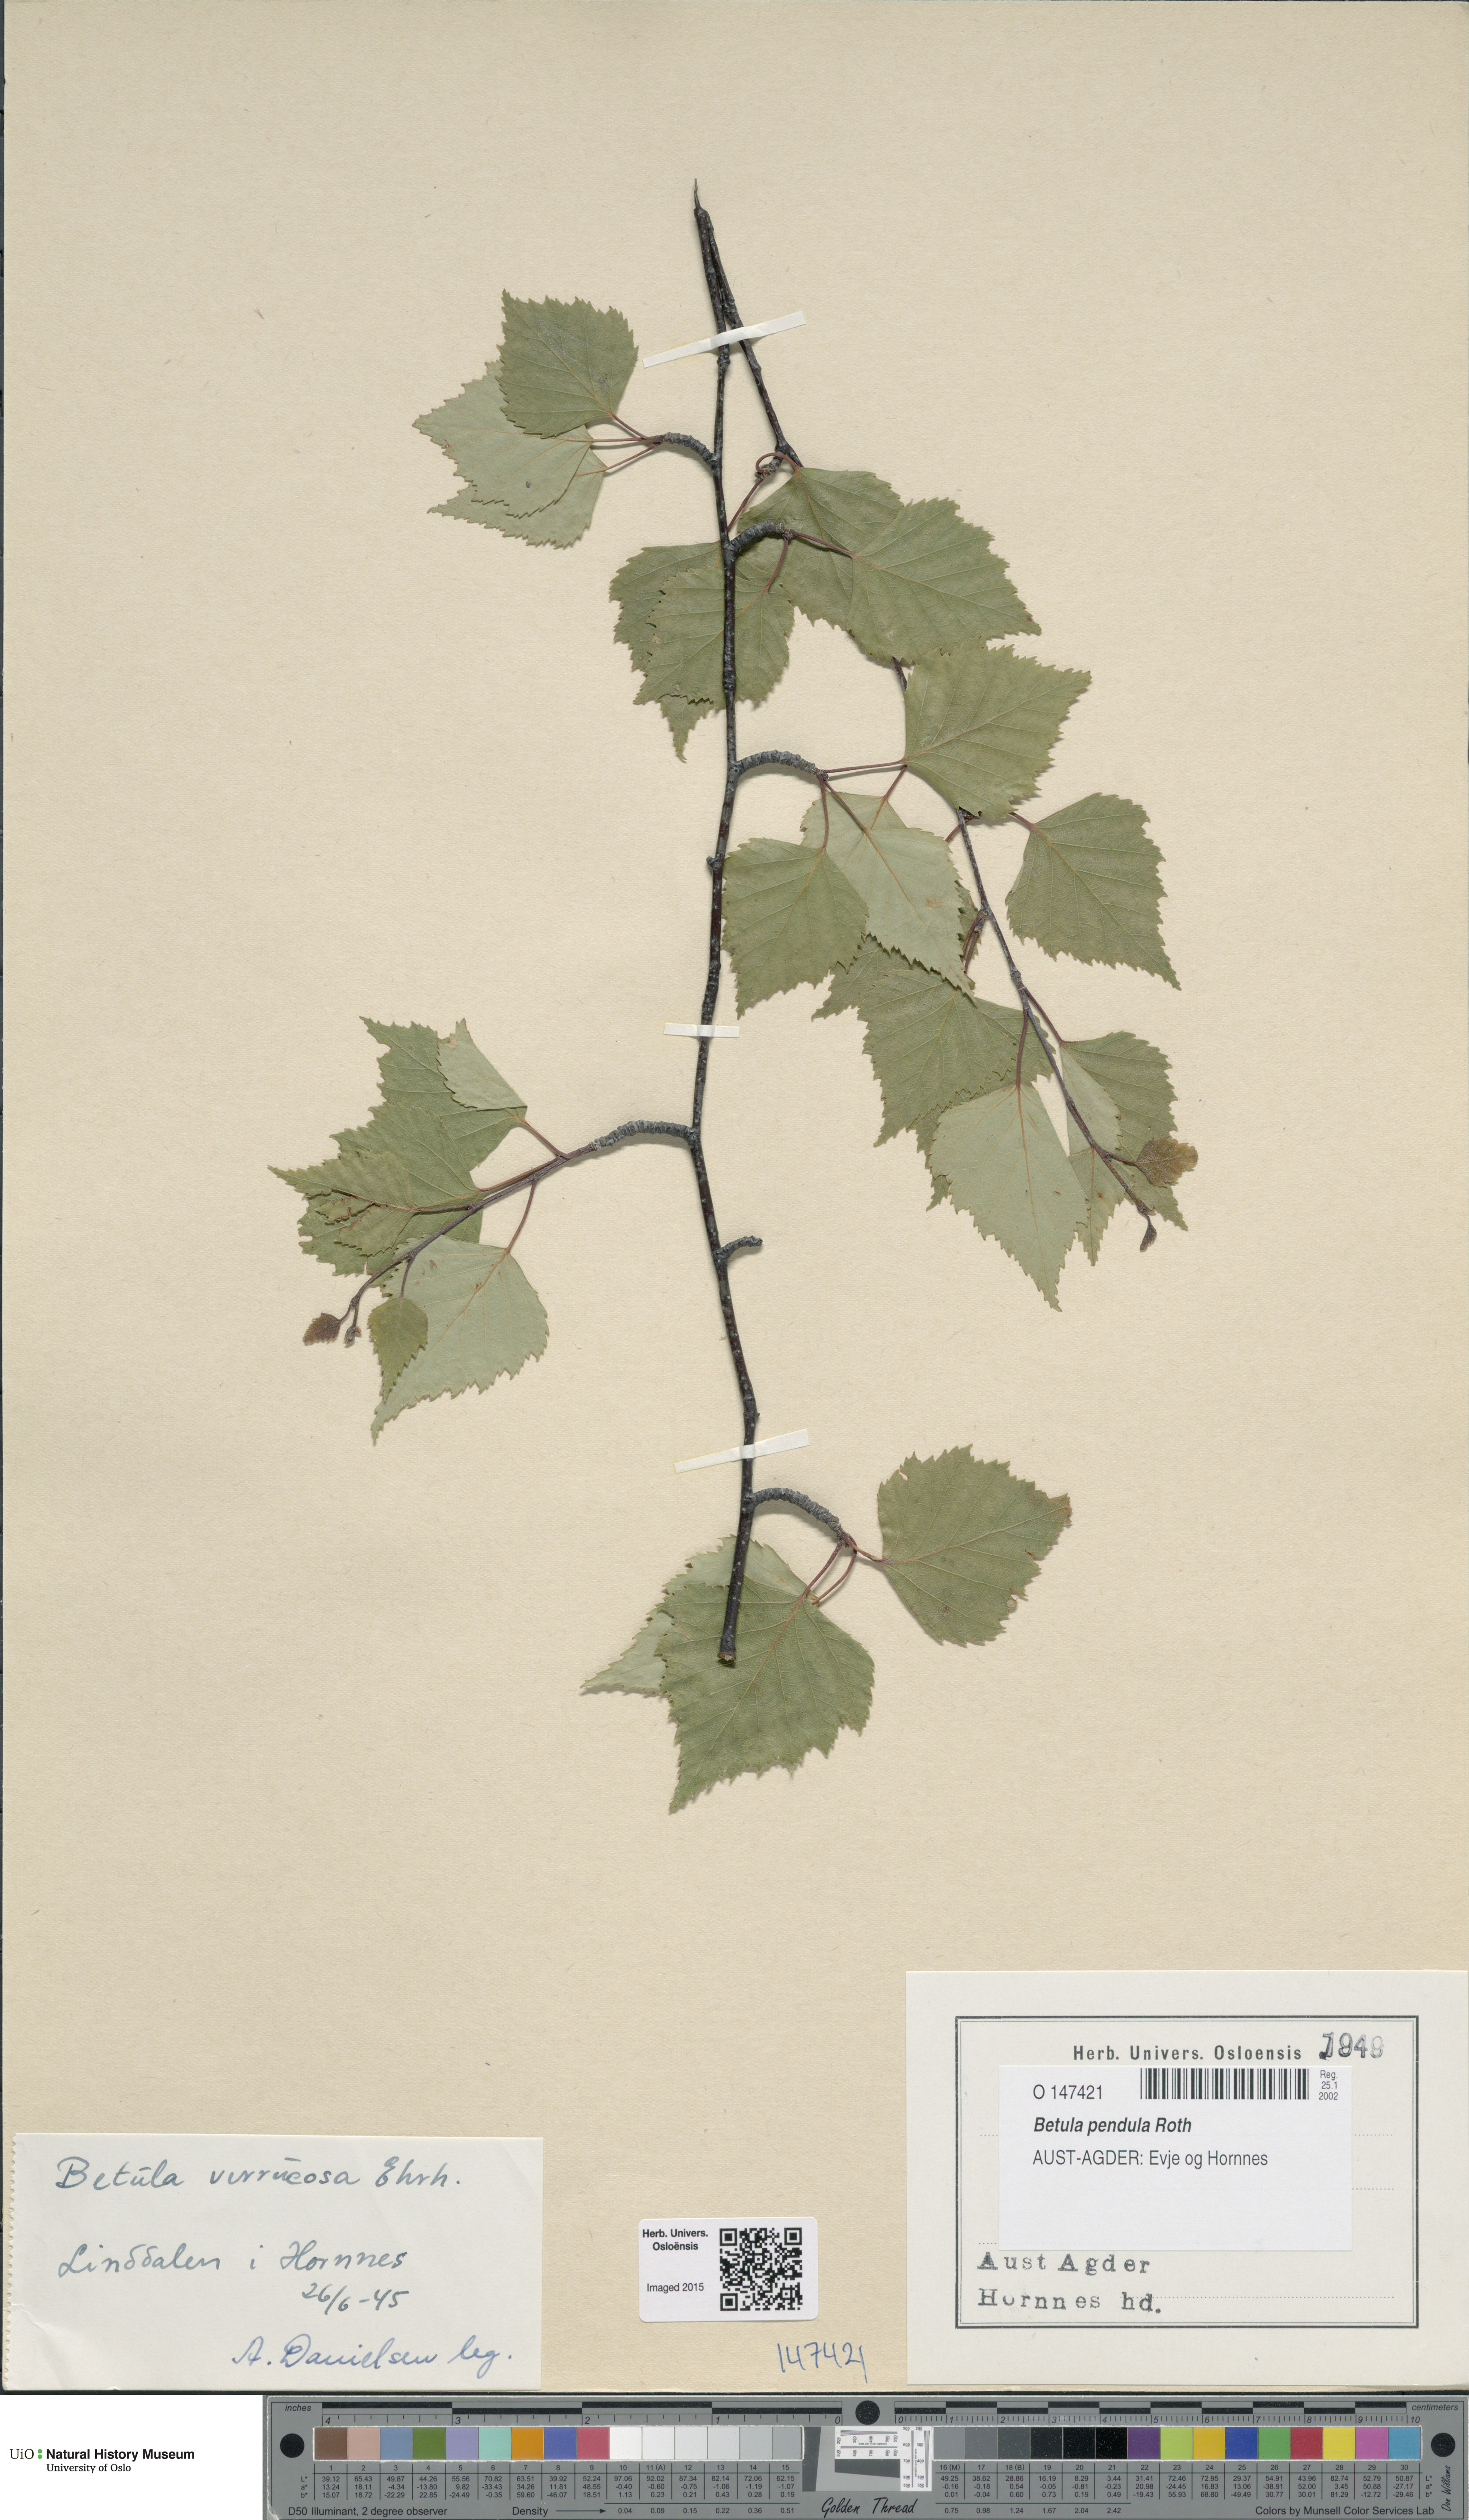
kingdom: Plantae
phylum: Tracheophyta
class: Magnoliopsida
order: Fagales
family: Betulaceae
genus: Betula
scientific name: Betula pendula
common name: Silver birch
